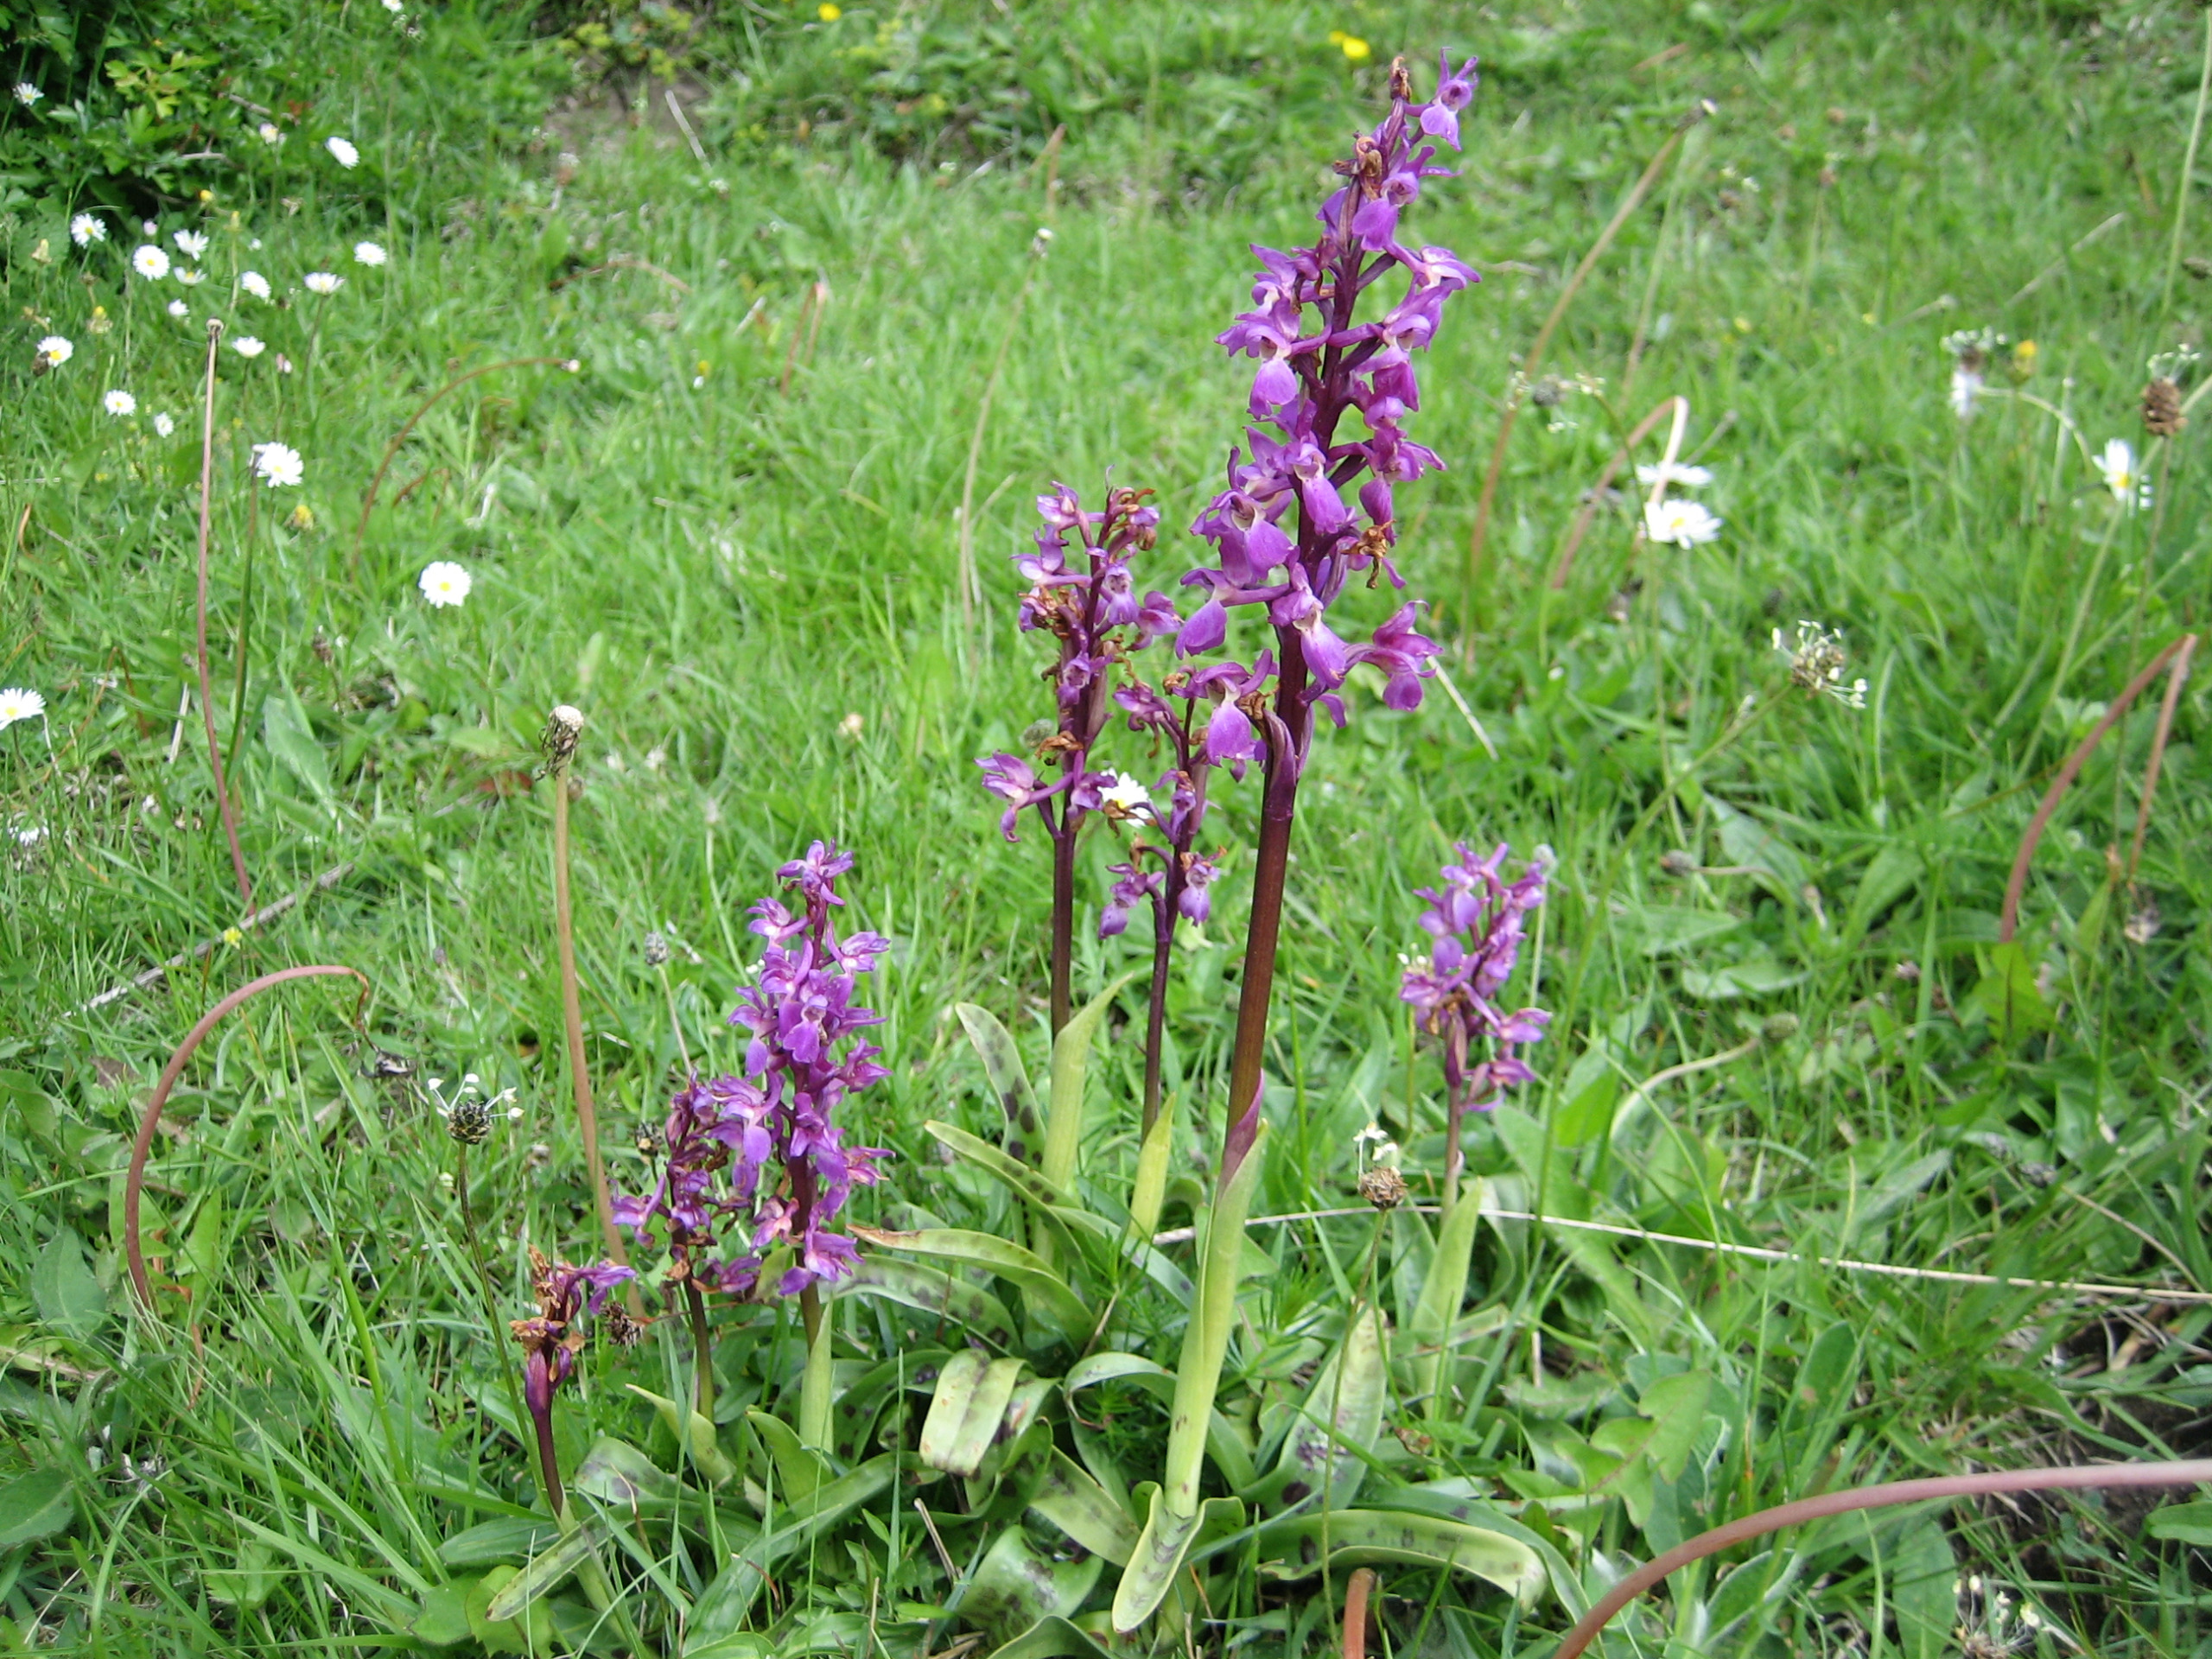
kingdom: Plantae
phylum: Tracheophyta
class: Liliopsida
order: Asparagales
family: Orchidaceae
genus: Orchis
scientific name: Orchis mascula
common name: Tyndakset gøgeurt
